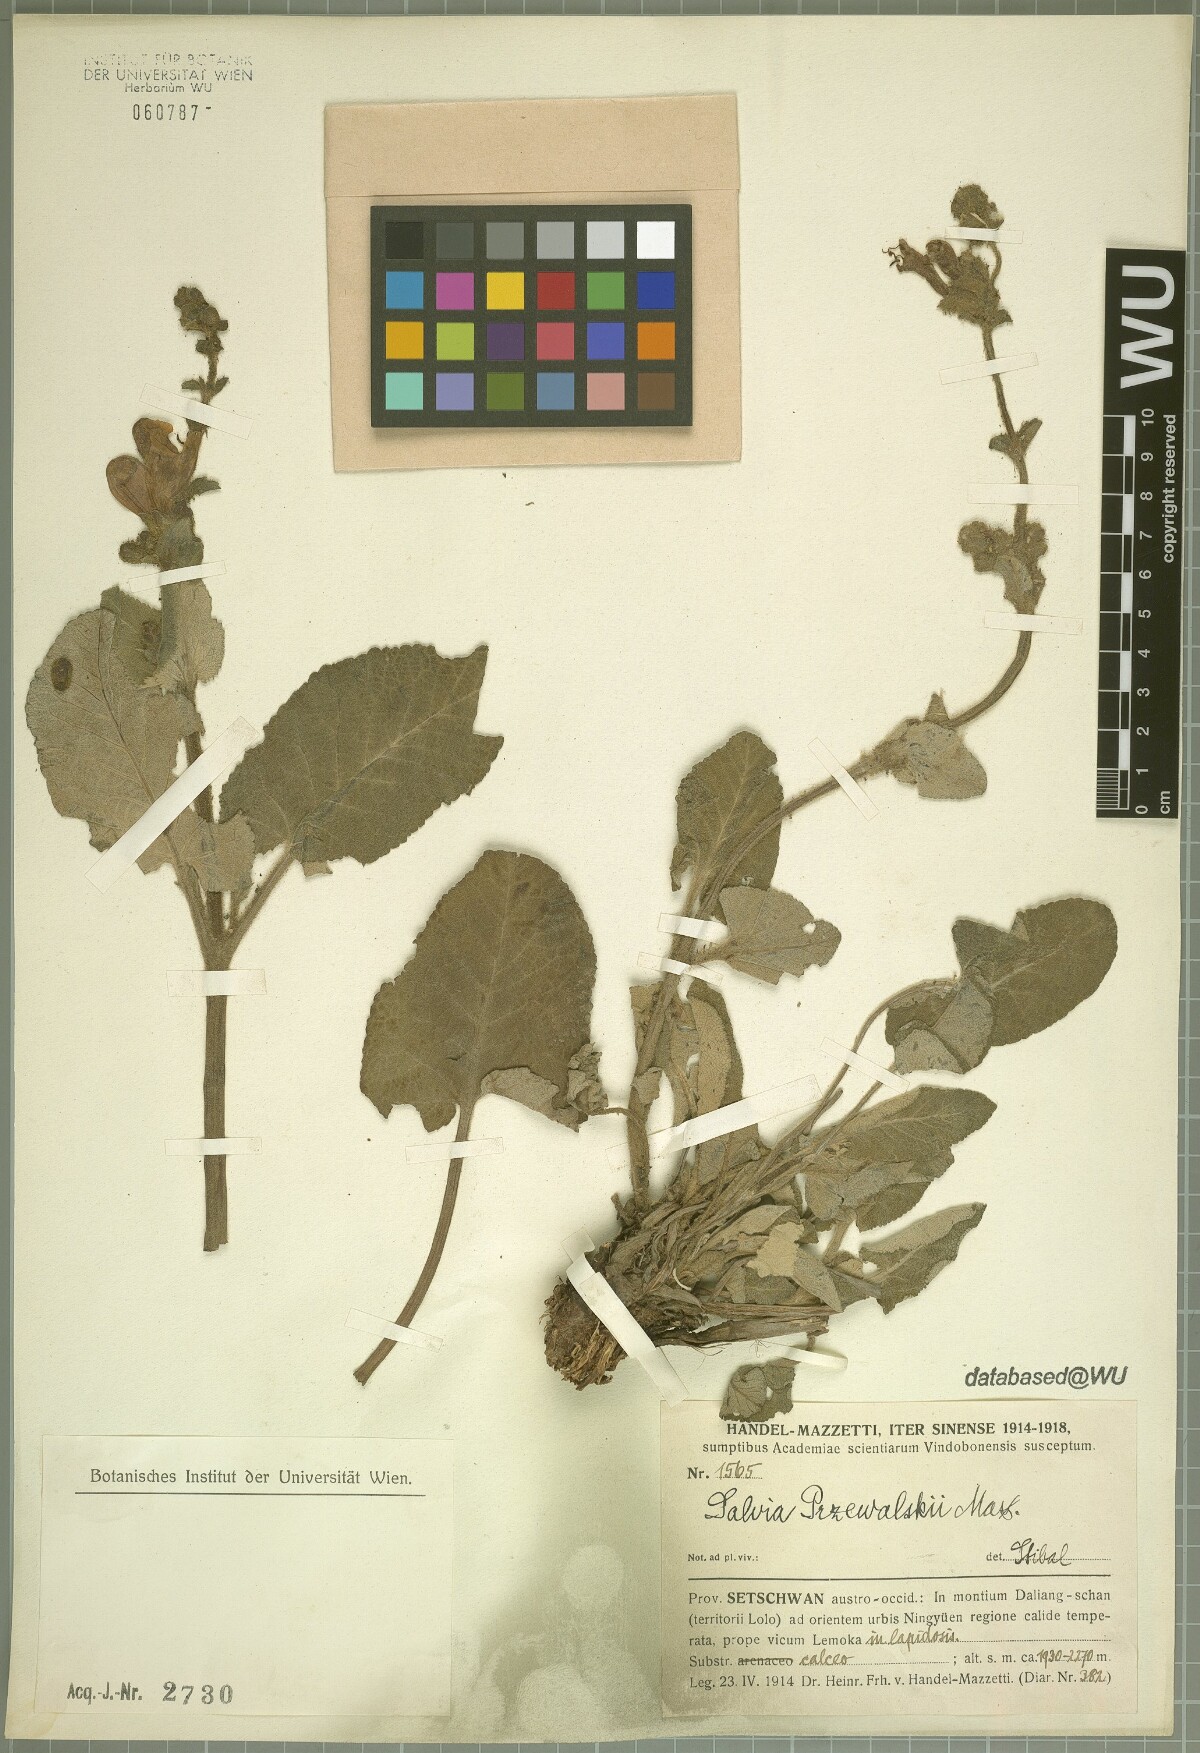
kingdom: Plantae
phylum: Tracheophyta
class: Magnoliopsida
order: Lamiales
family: Lamiaceae
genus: Salvia
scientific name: Salvia przewalskii
